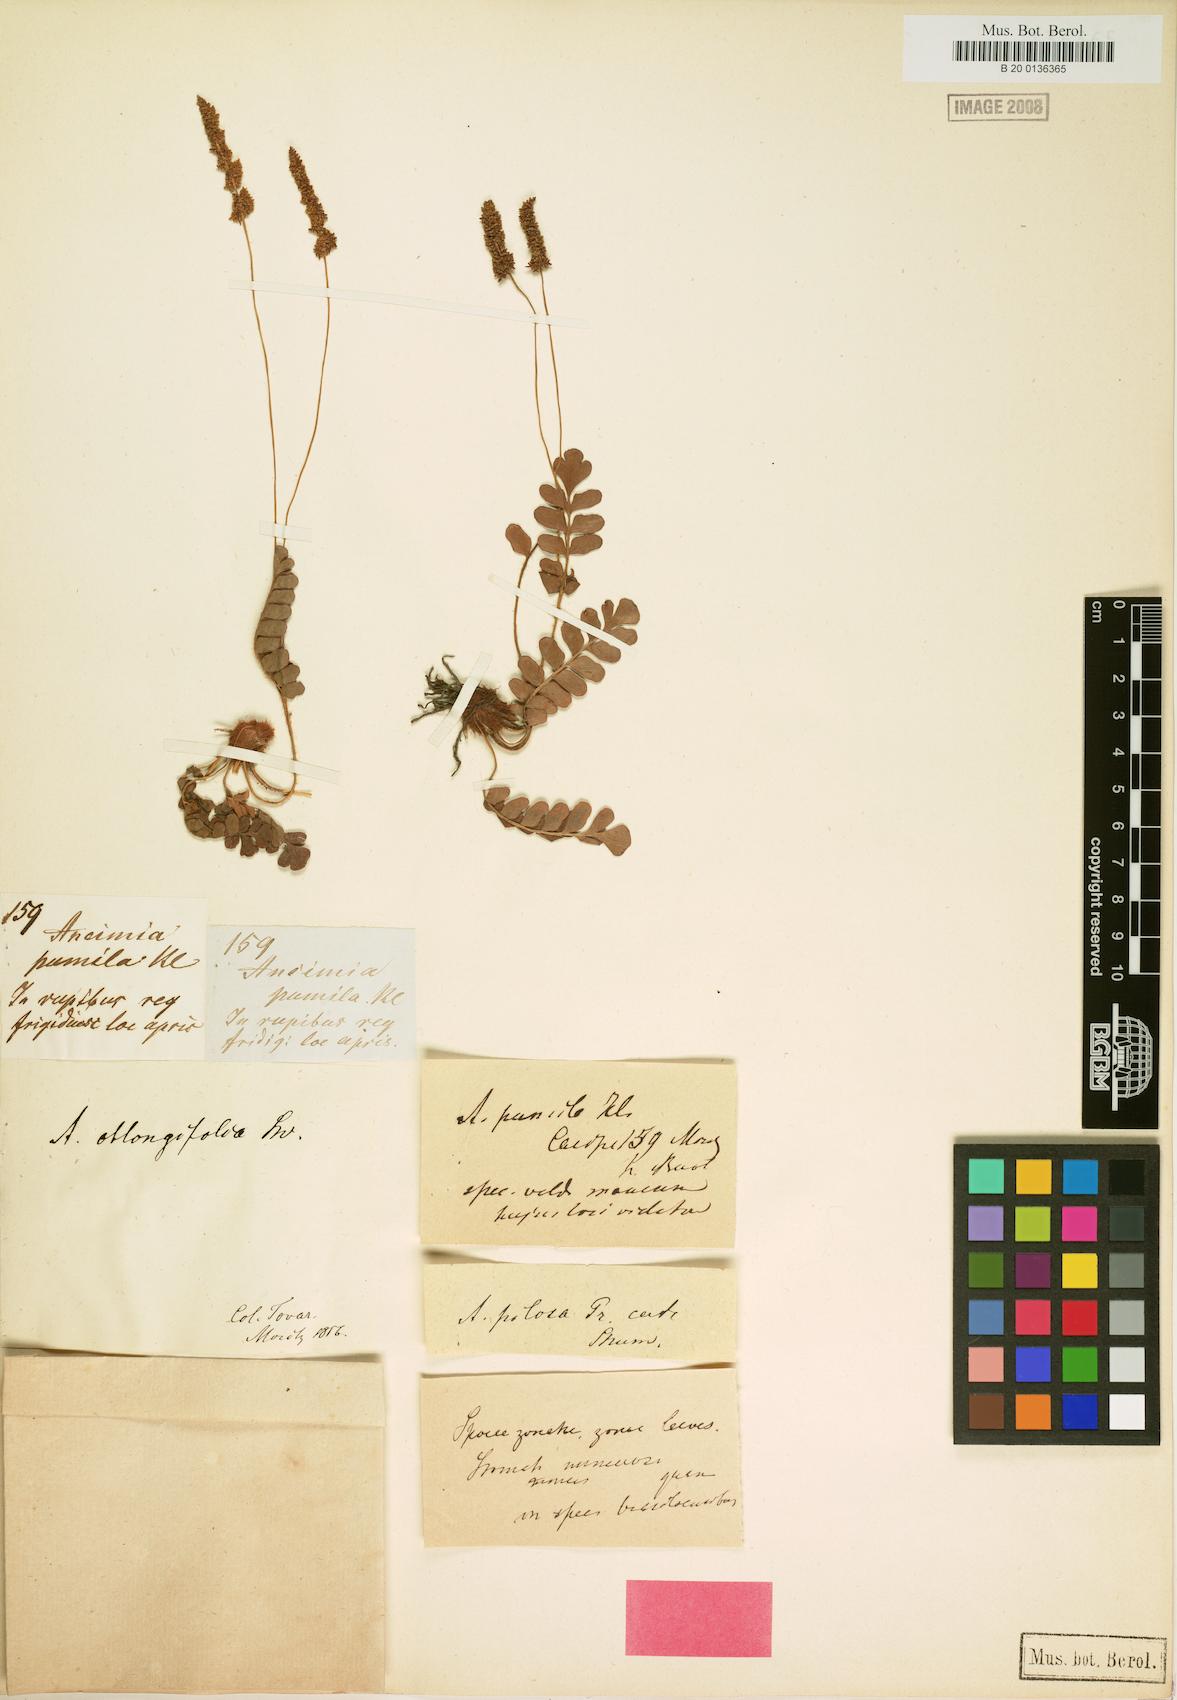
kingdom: Plantae
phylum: Tracheophyta
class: Polypodiopsida
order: Schizaeales
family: Anemiaceae
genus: Anemia
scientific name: Anemia oblongifolia
